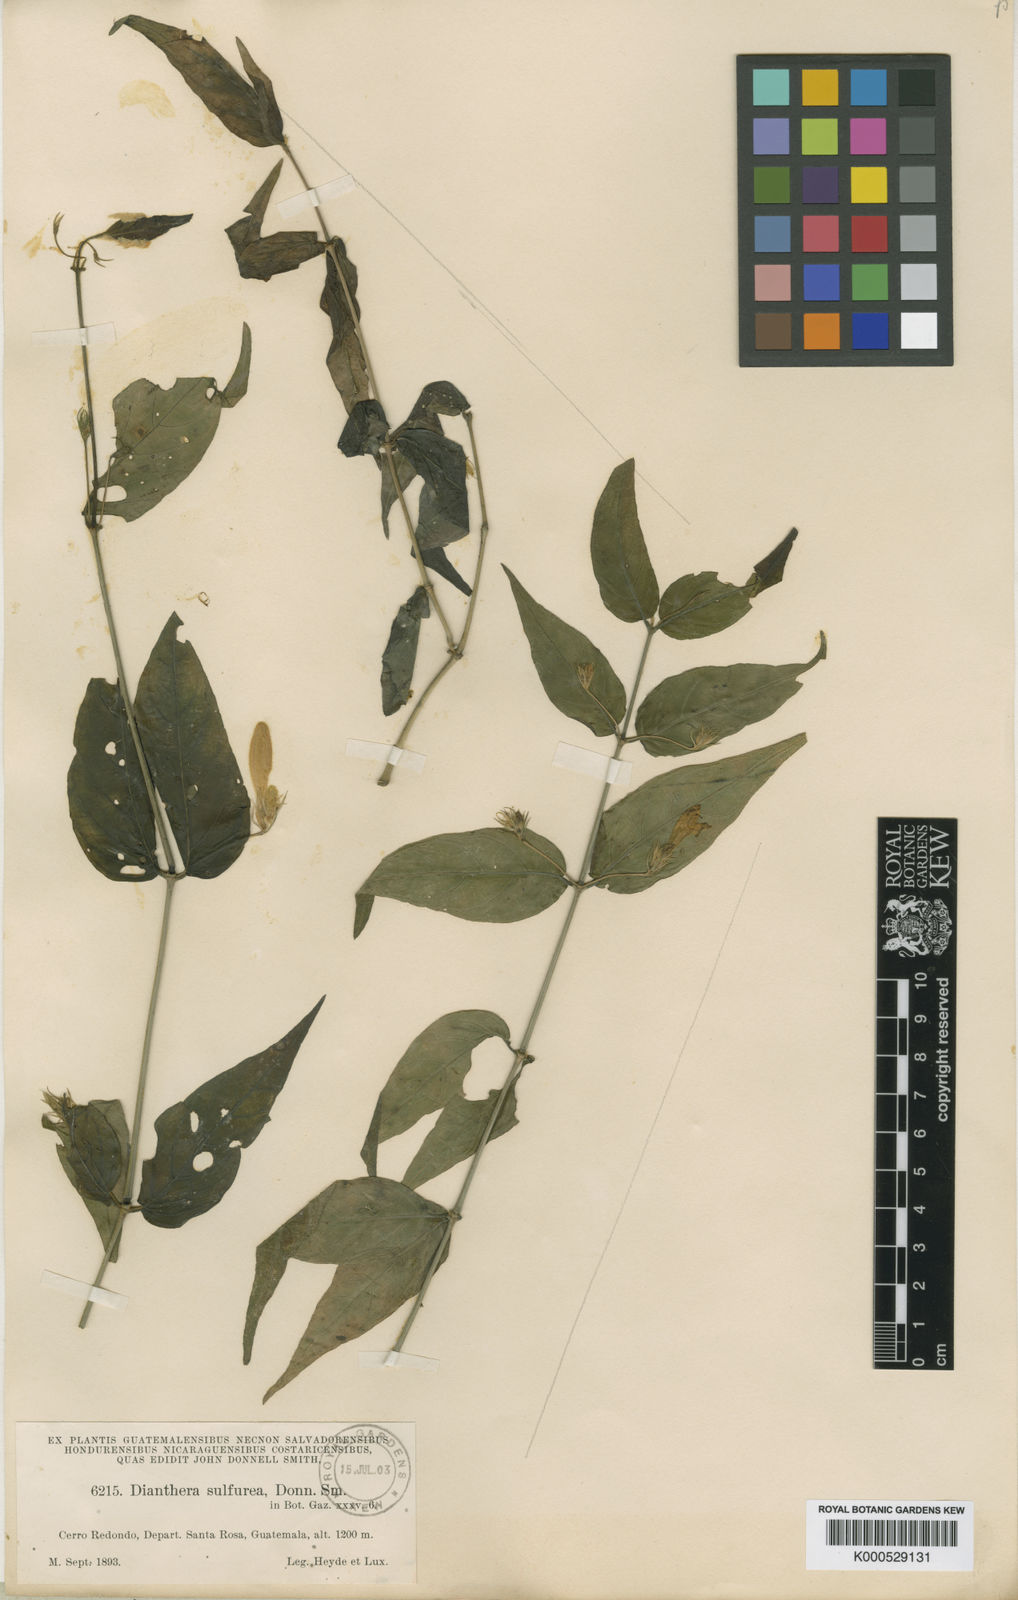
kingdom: Plantae
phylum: Tracheophyta
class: Magnoliopsida
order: Lamiales
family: Acanthaceae
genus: Dianthera
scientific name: Dianthera sulfurea
